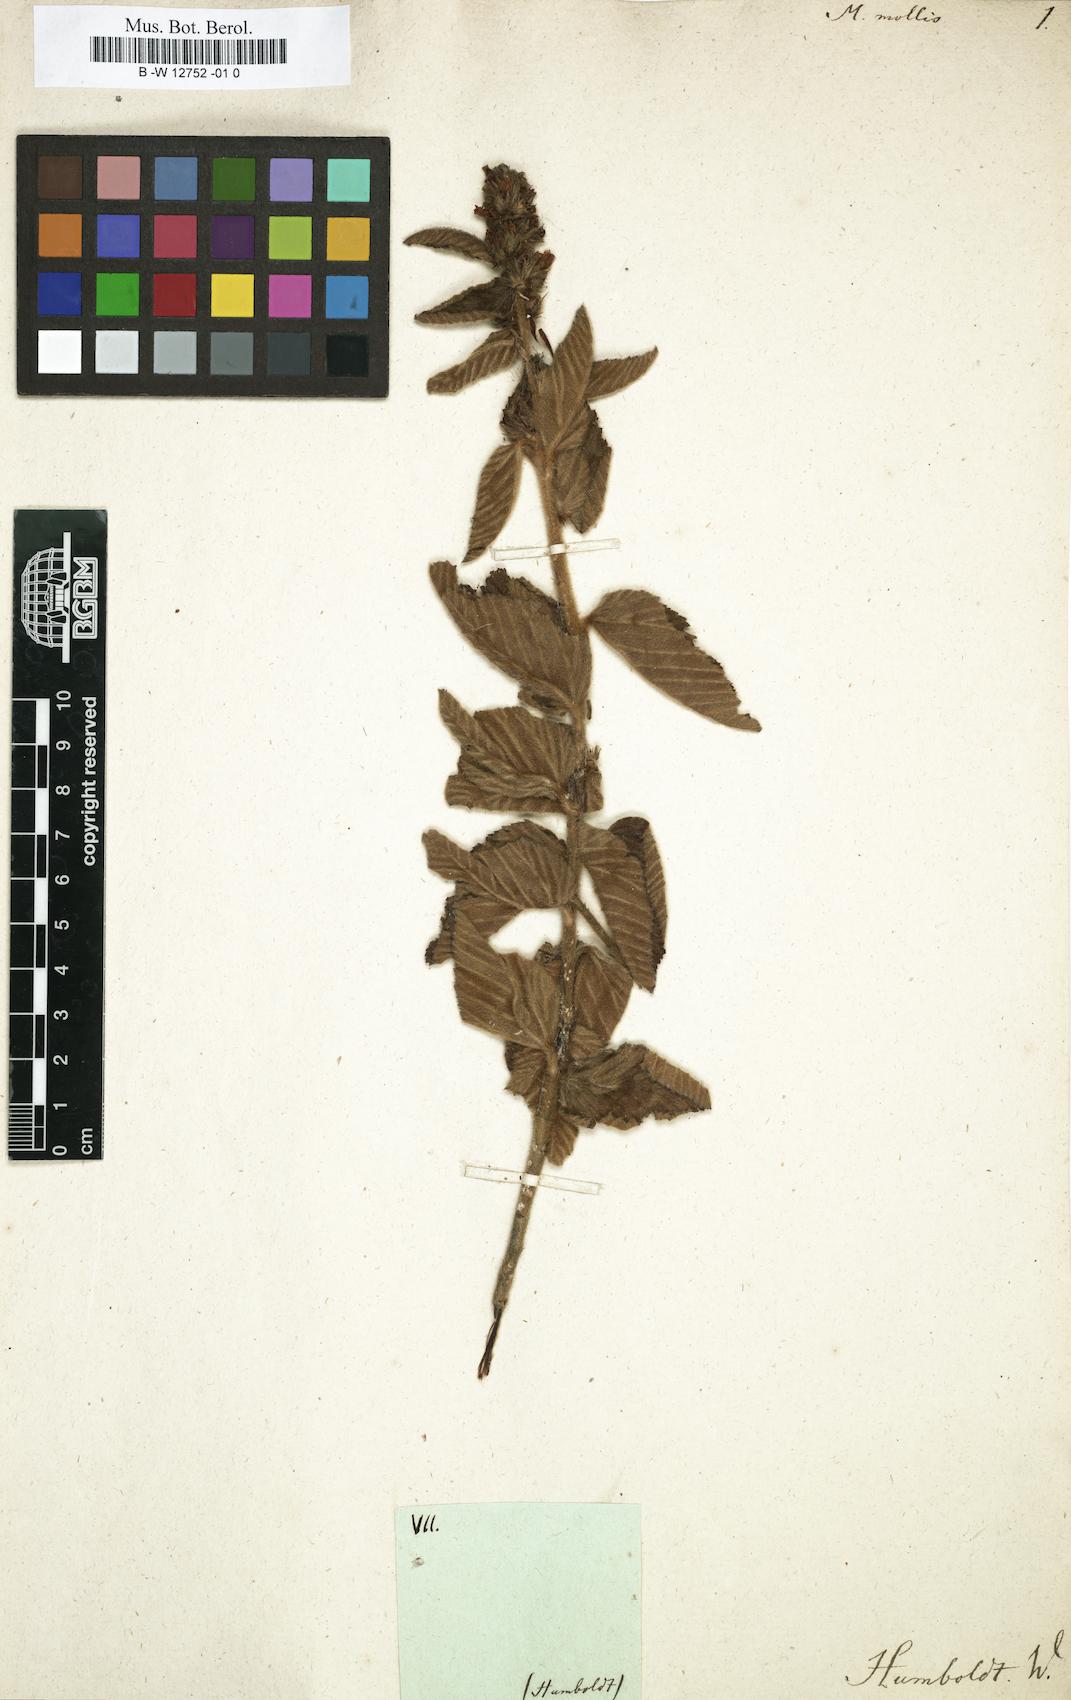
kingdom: Plantae
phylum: Tracheophyta
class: Magnoliopsida
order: Malvales
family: Malvaceae
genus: Malva
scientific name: Malva
